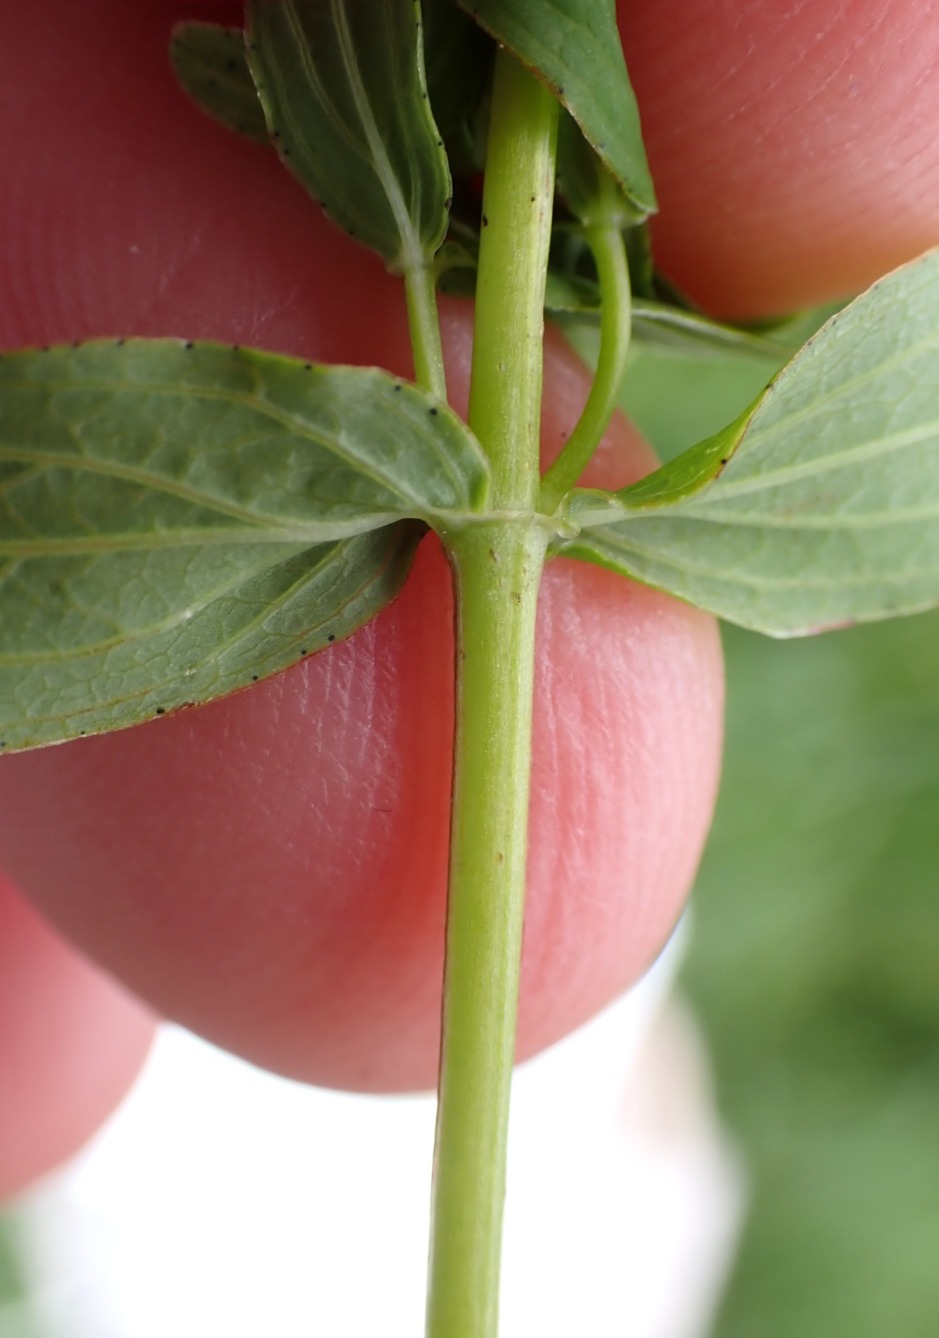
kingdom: Plantae
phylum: Tracheophyta
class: Magnoliopsida
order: Malpighiales
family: Hypericaceae
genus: Hypericum
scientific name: Hypericum maculatum
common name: Kantet perikon
